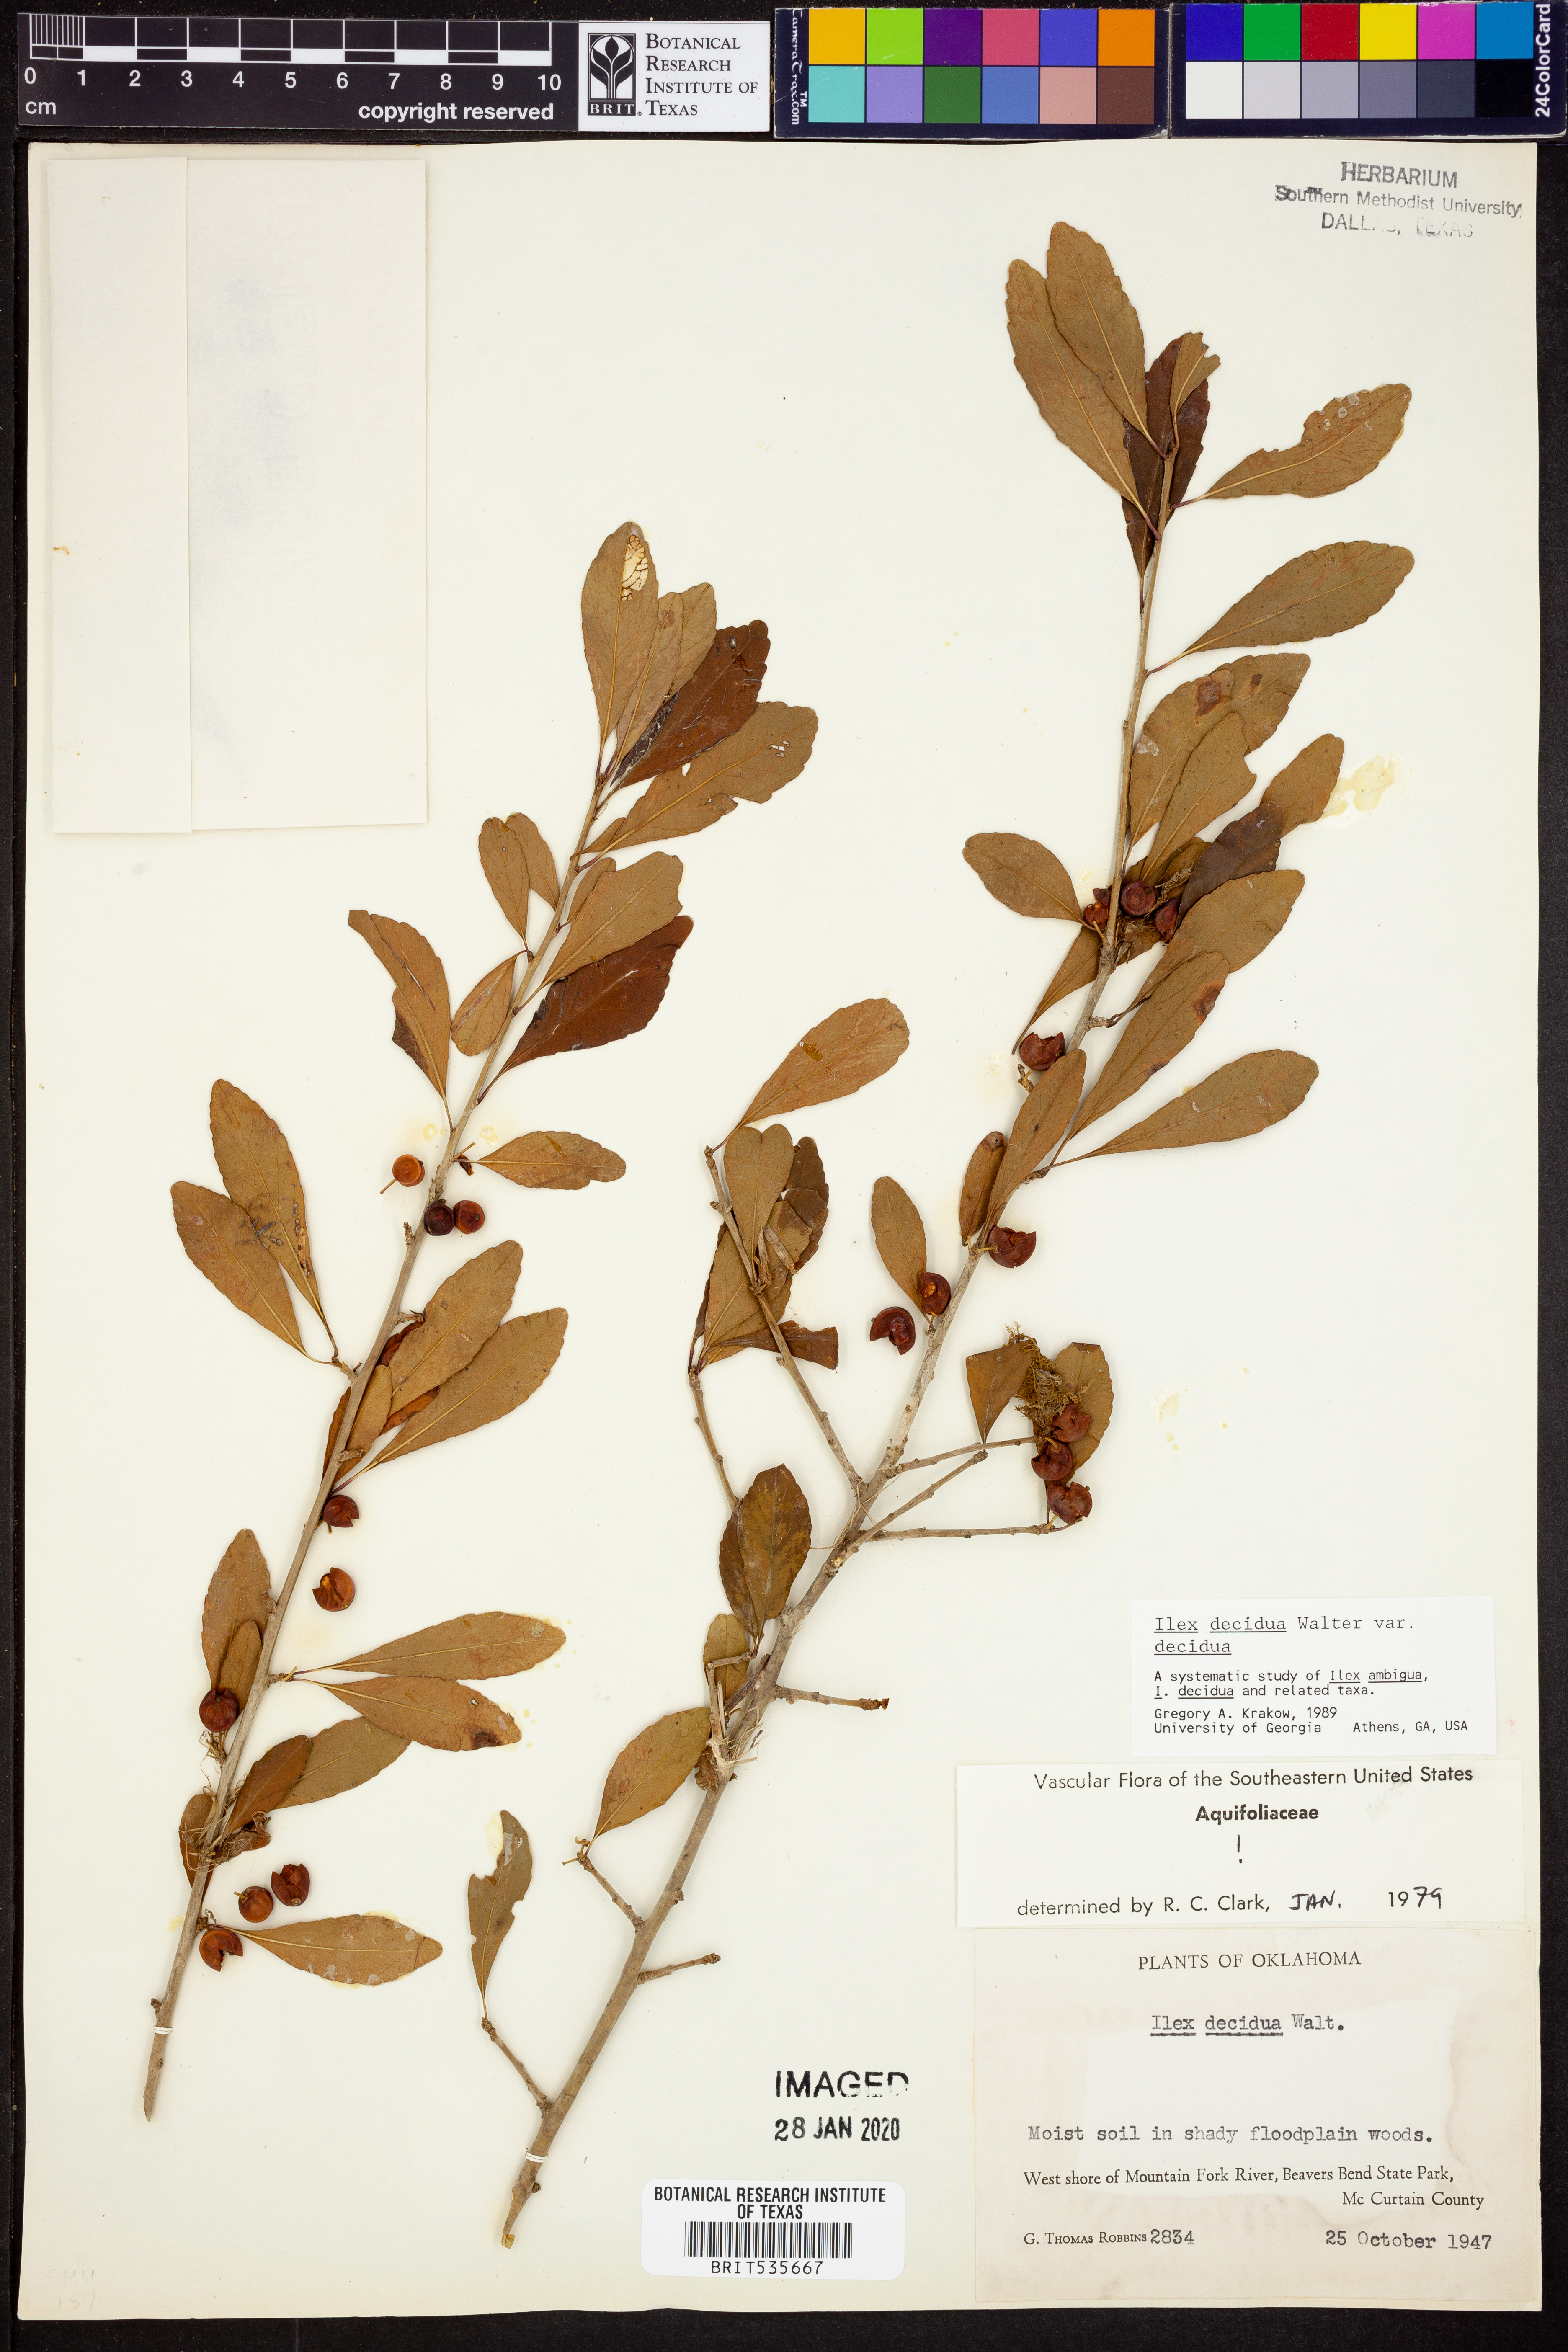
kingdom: Plantae
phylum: Tracheophyta
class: Magnoliopsida
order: Aquifoliales
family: Aquifoliaceae
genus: Ilex
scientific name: Ilex decidua
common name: Possum-haw
